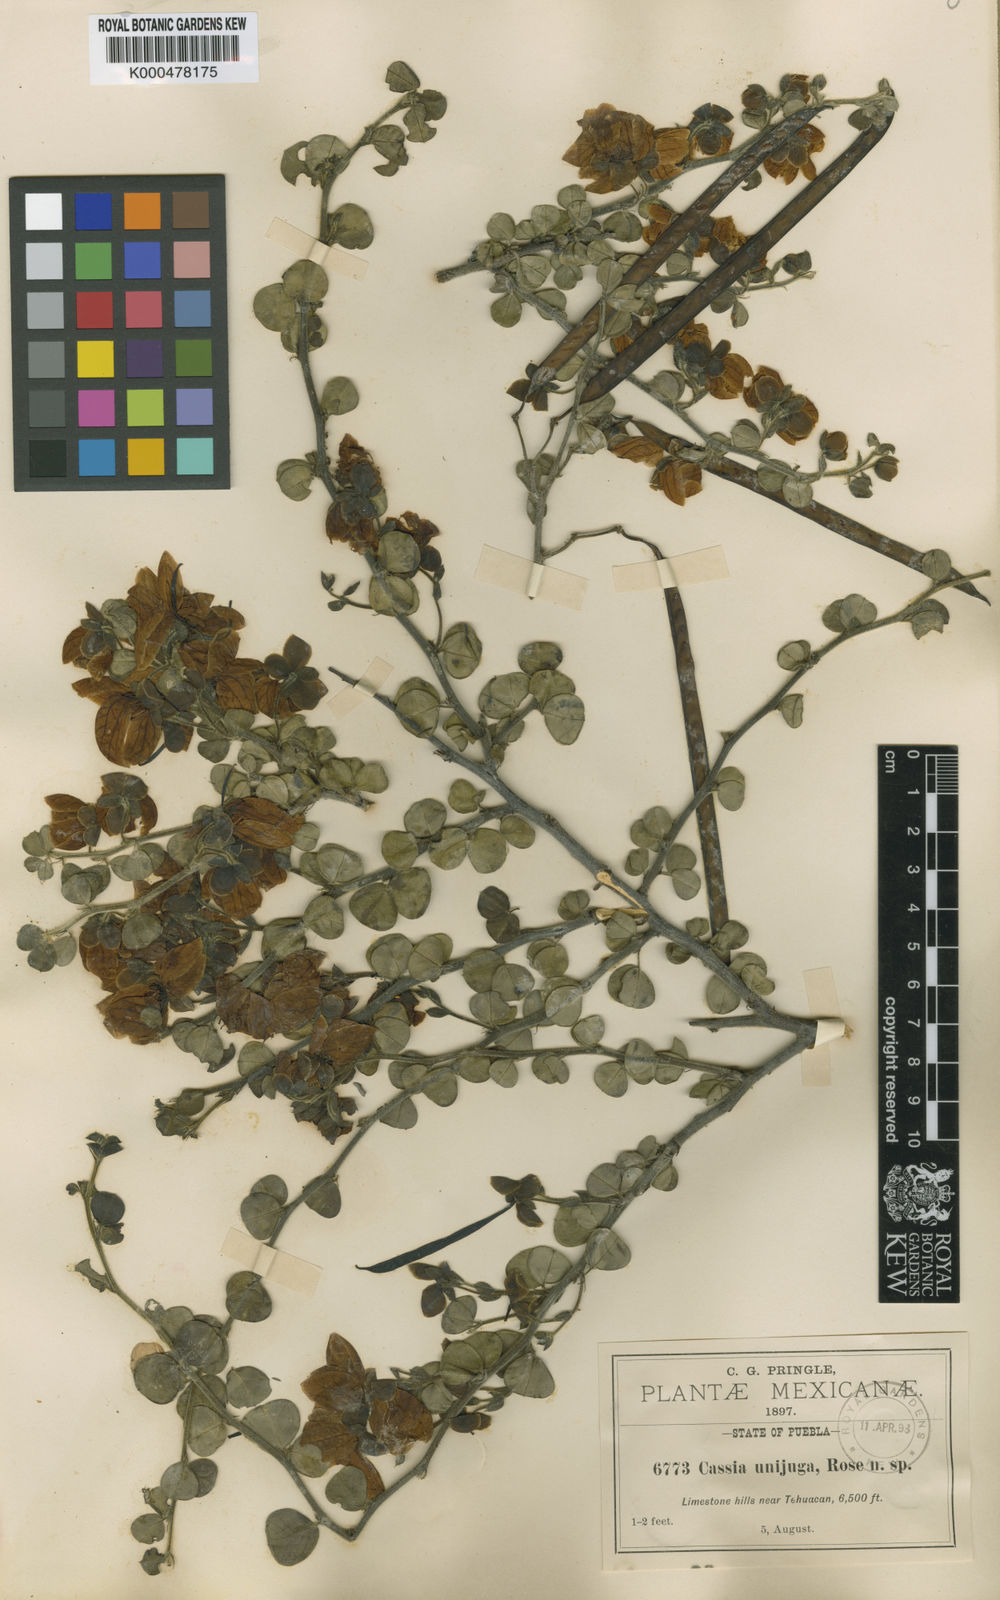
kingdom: Plantae
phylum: Tracheophyta
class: Magnoliopsida
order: Fabales
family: Fabaceae
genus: Senna
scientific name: Senna unijuga
